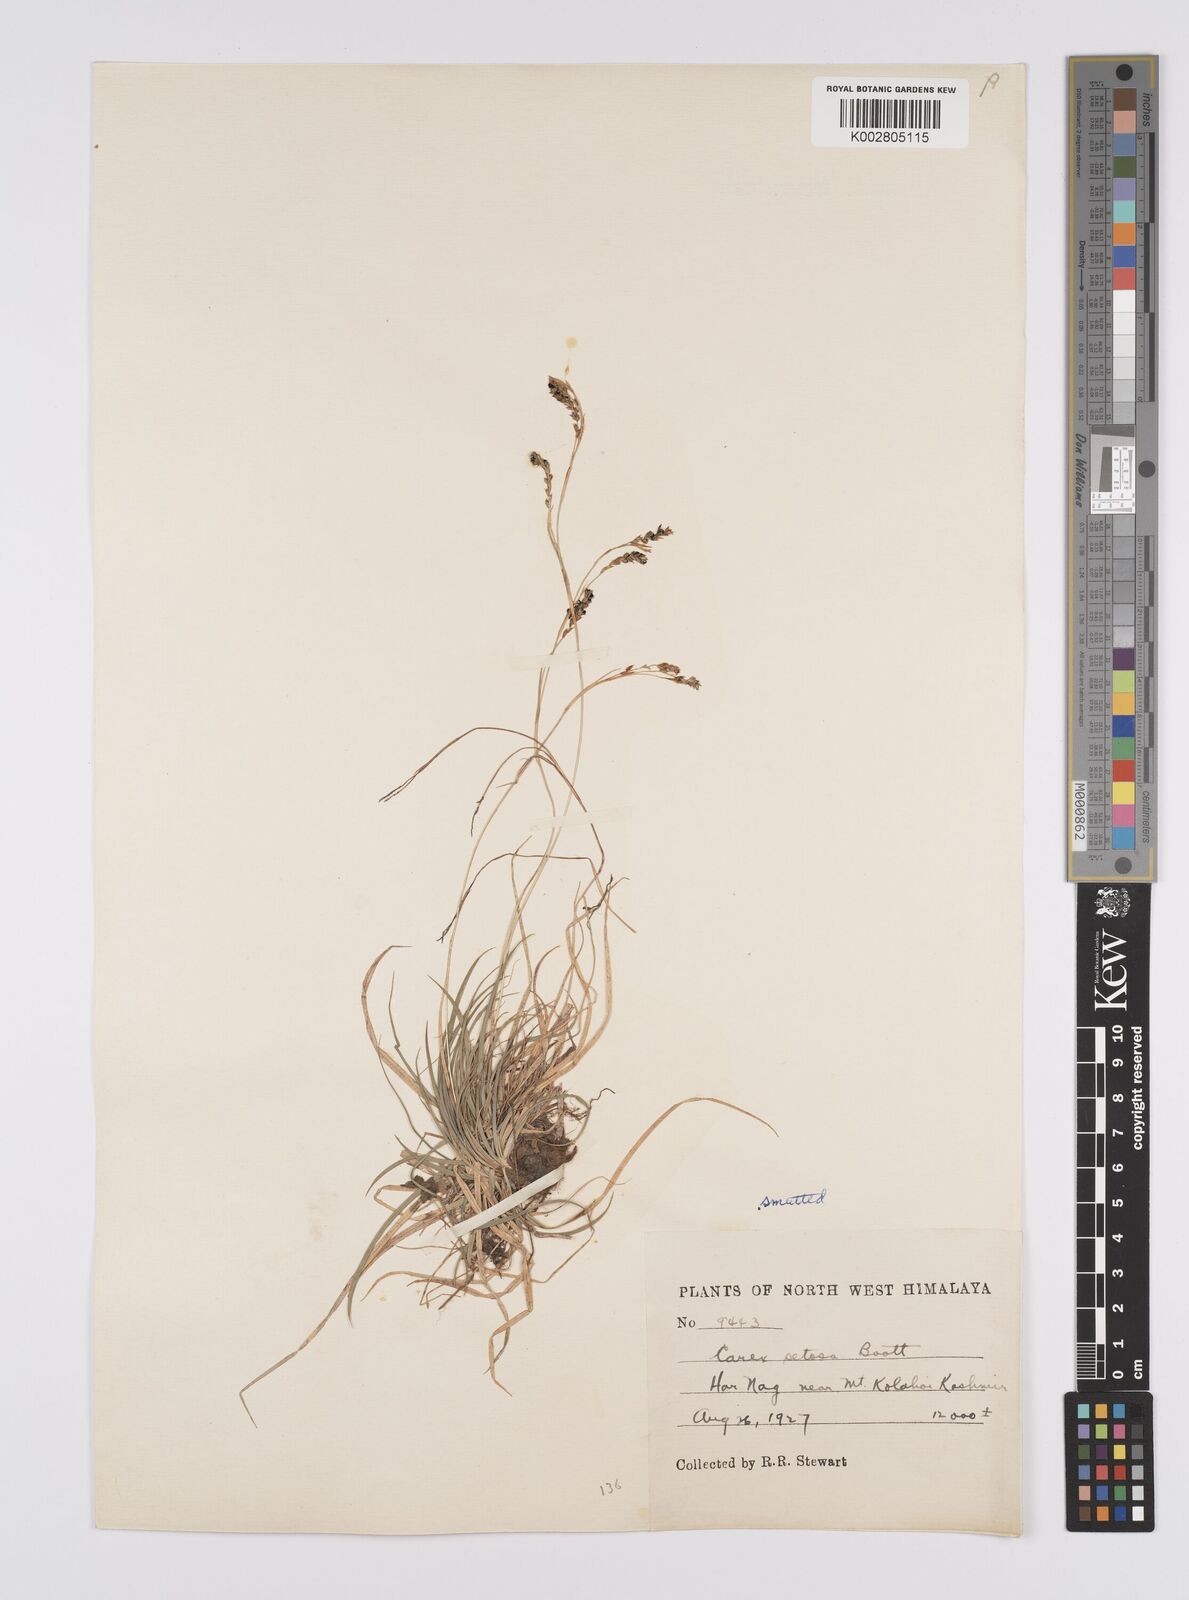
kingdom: Plantae
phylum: Tracheophyta
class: Liliopsida
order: Poales
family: Cyperaceae
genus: Carex
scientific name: Carex setosa
